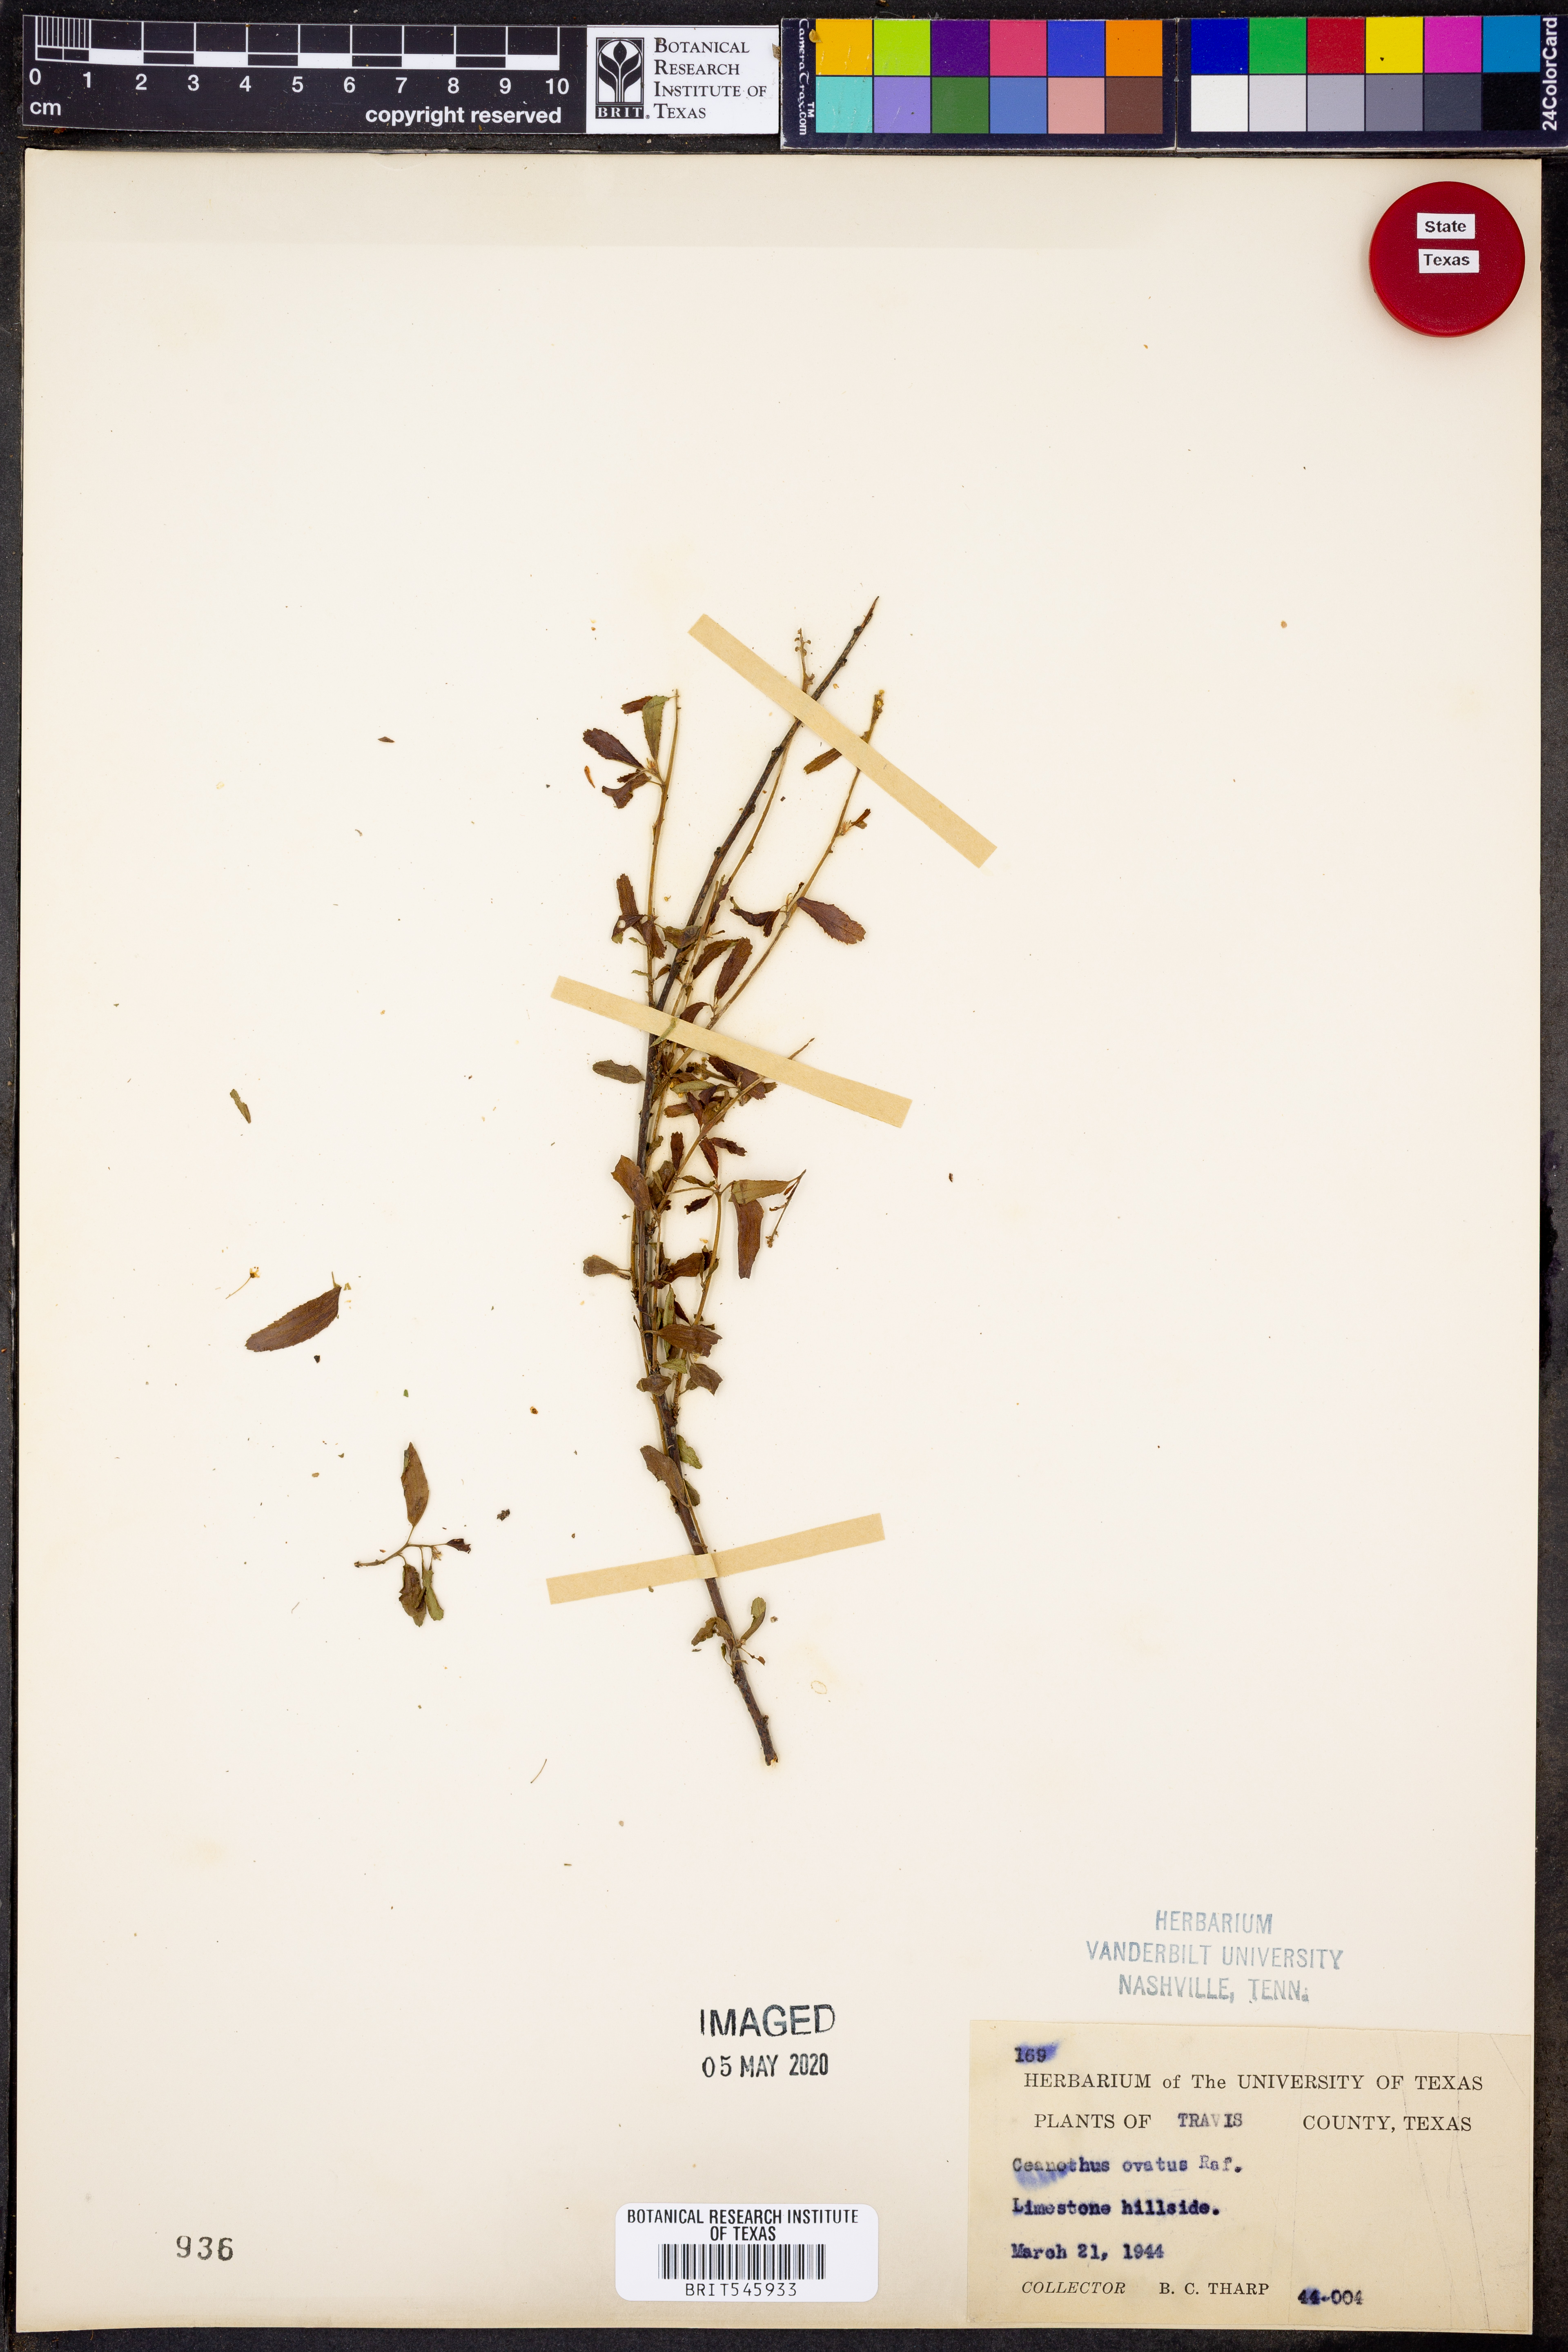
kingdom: Plantae
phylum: Tracheophyta
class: Magnoliopsida
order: Rosales
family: Rhamnaceae
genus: Ceanothus
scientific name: Ceanothus herbaceus
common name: Inland ceanothus
